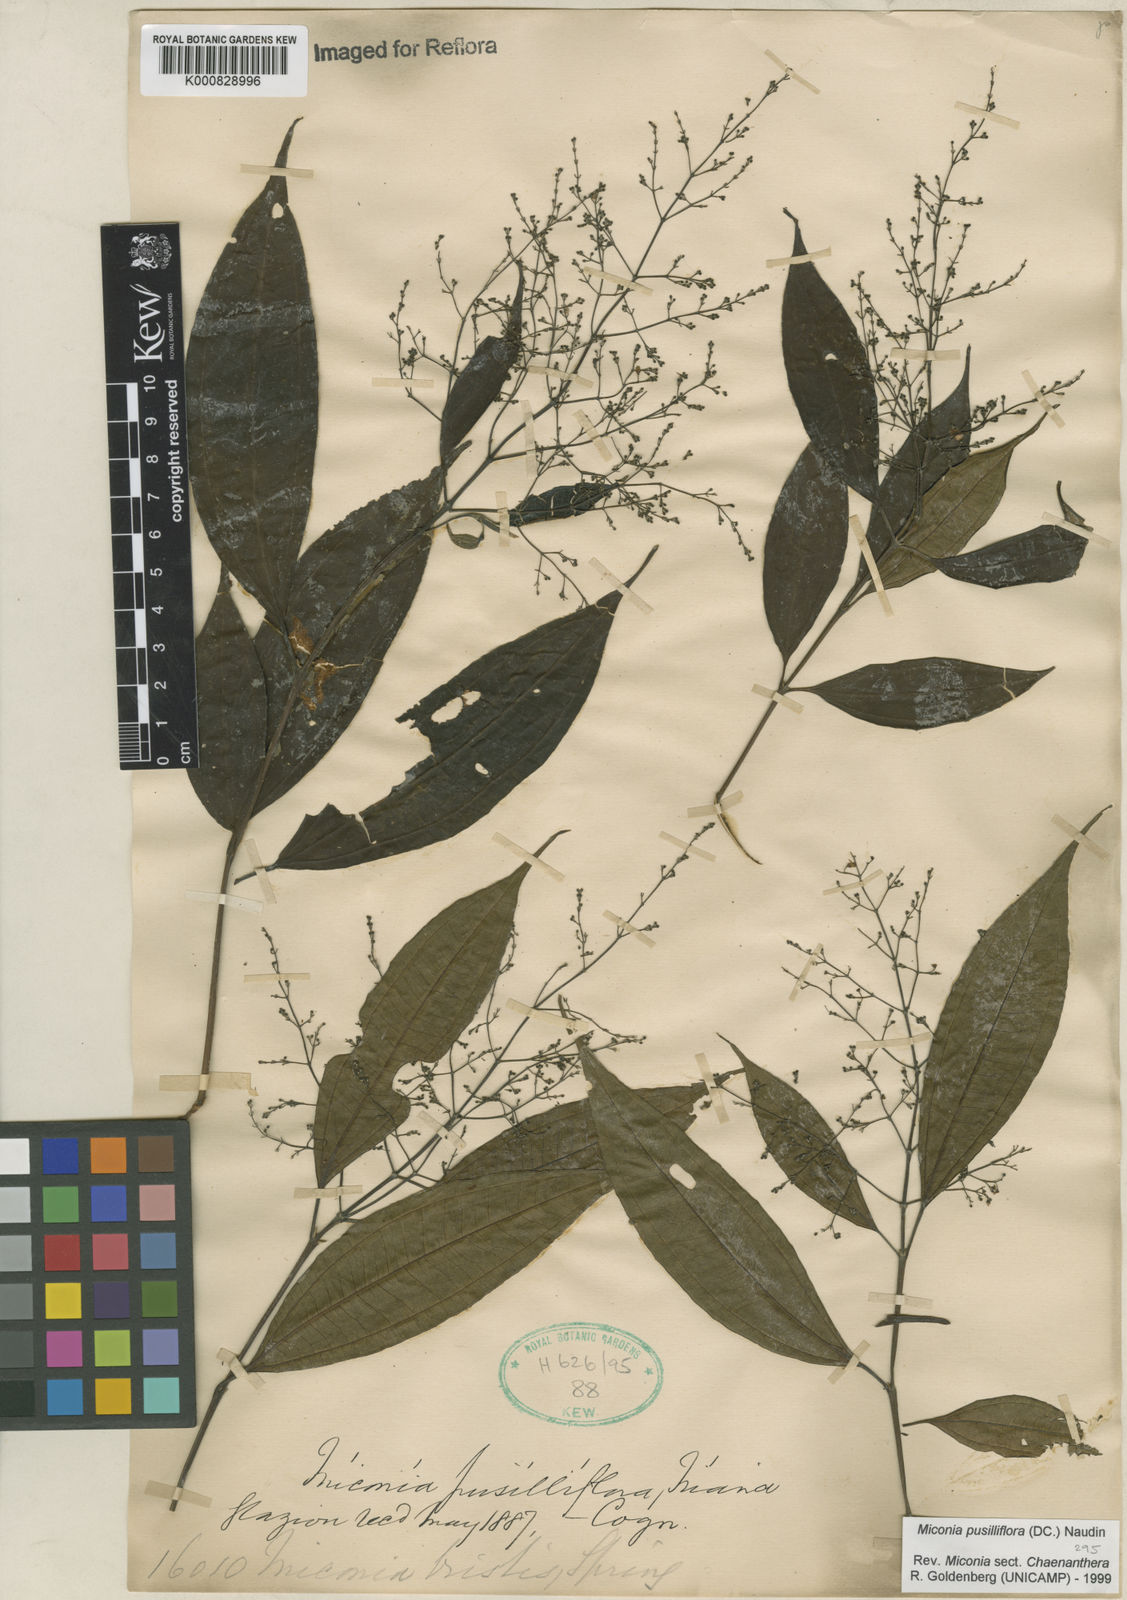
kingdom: Plantae
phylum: Tracheophyta
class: Magnoliopsida
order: Myrtales
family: Melastomataceae
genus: Miconia
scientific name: Miconia pusilliflora
